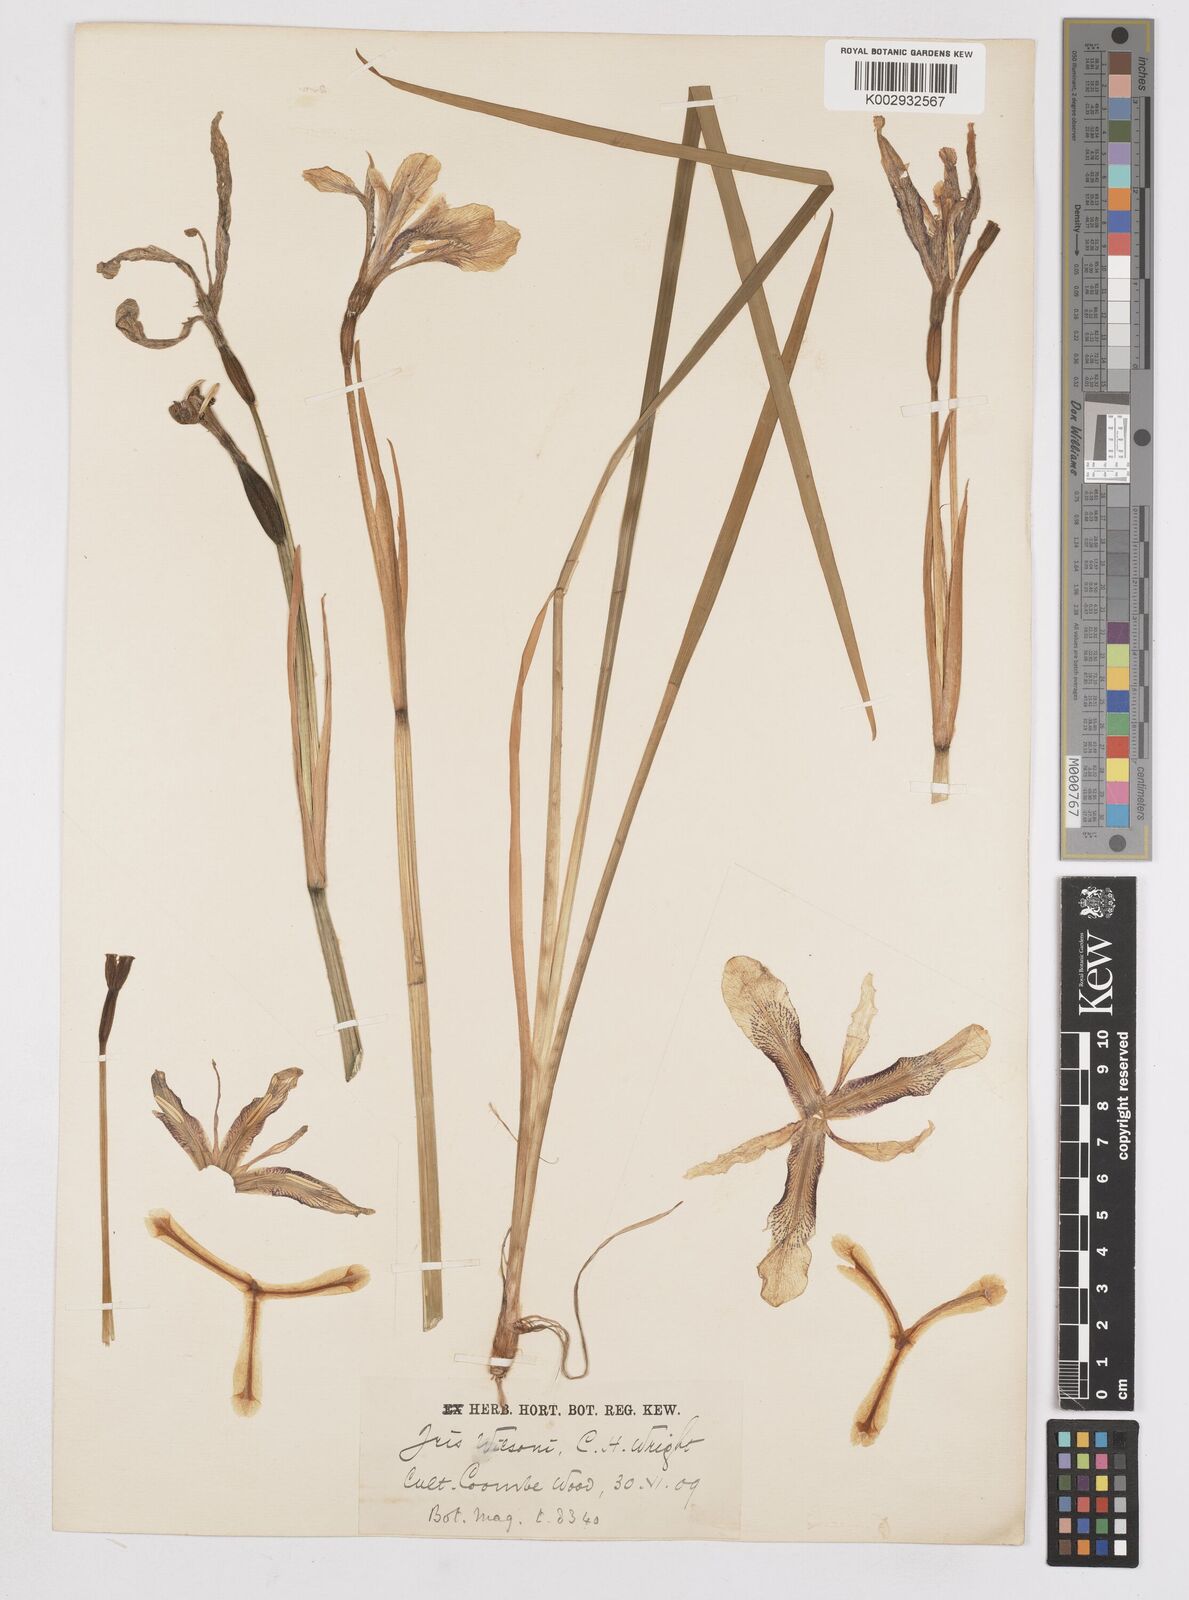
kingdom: Plantae
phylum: Tracheophyta
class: Liliopsida
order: Asparagales
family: Iridaceae
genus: Iris
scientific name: Iris wilsonii
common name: Yellow-flower iris
